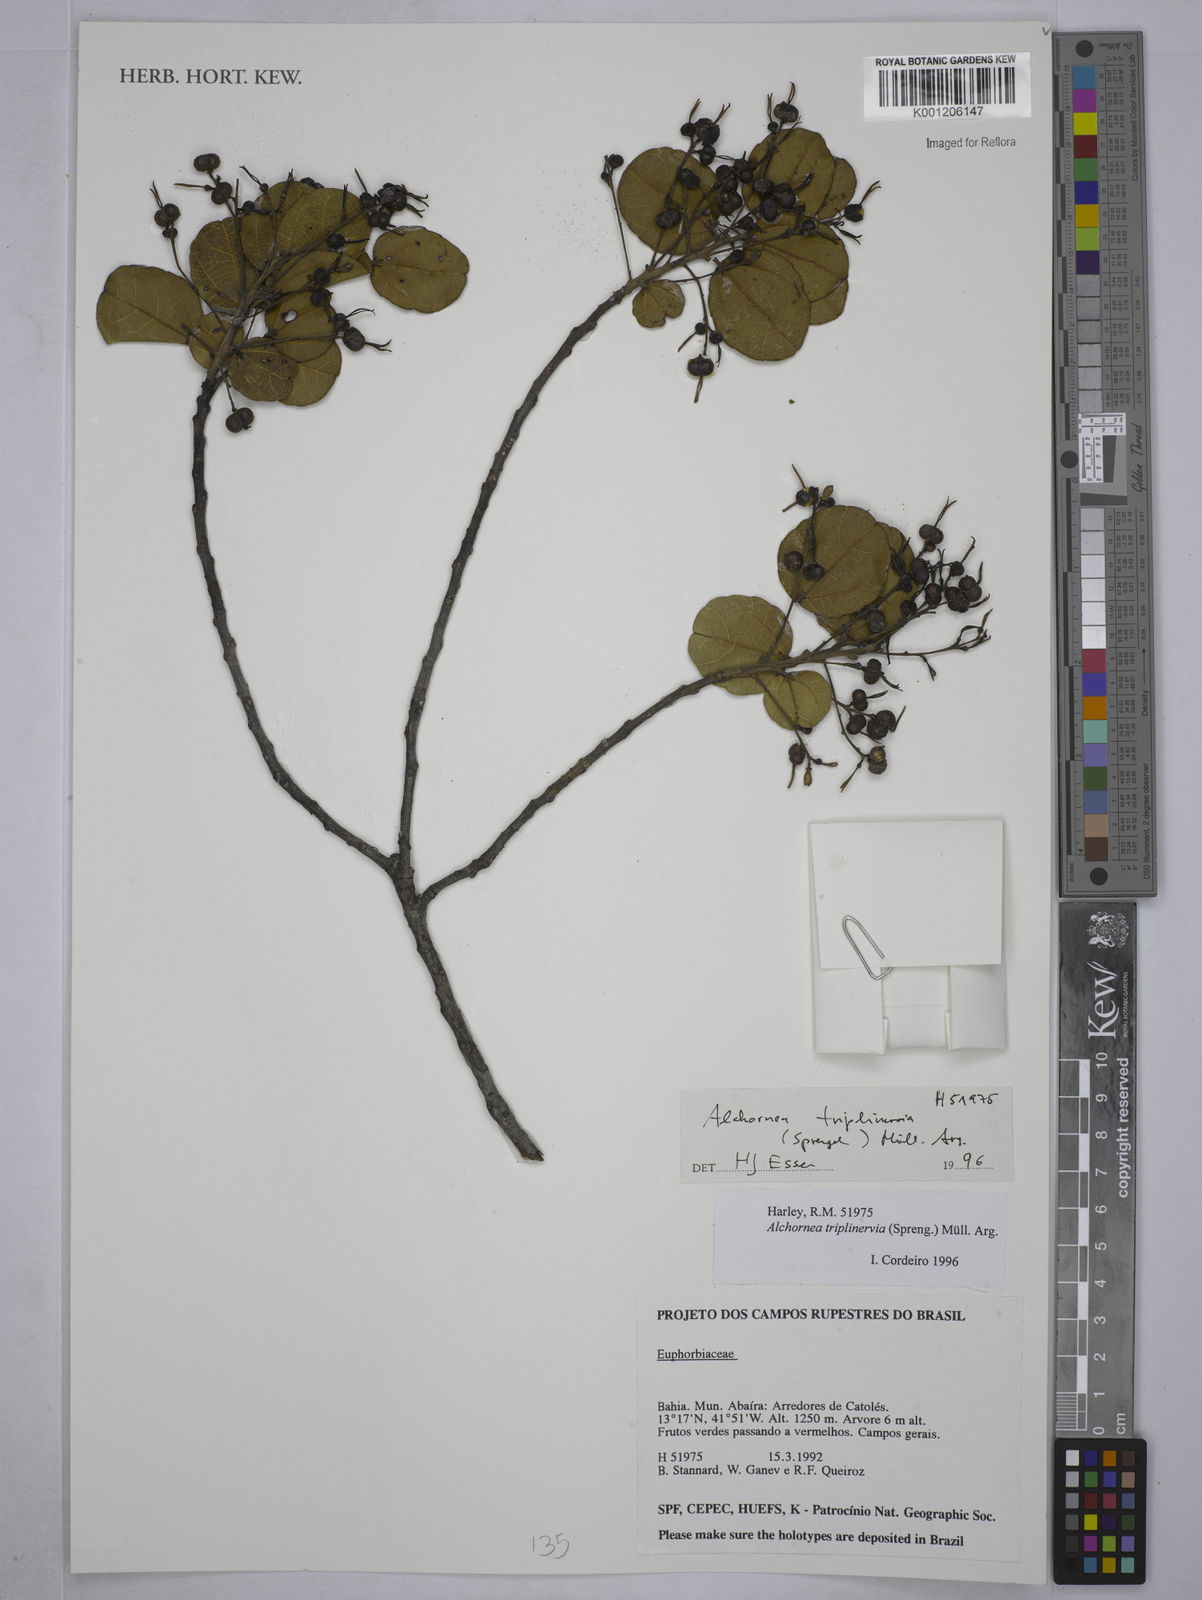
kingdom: Plantae
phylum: Tracheophyta
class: Magnoliopsida
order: Malpighiales
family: Euphorbiaceae
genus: Alchornea
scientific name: Alchornea
